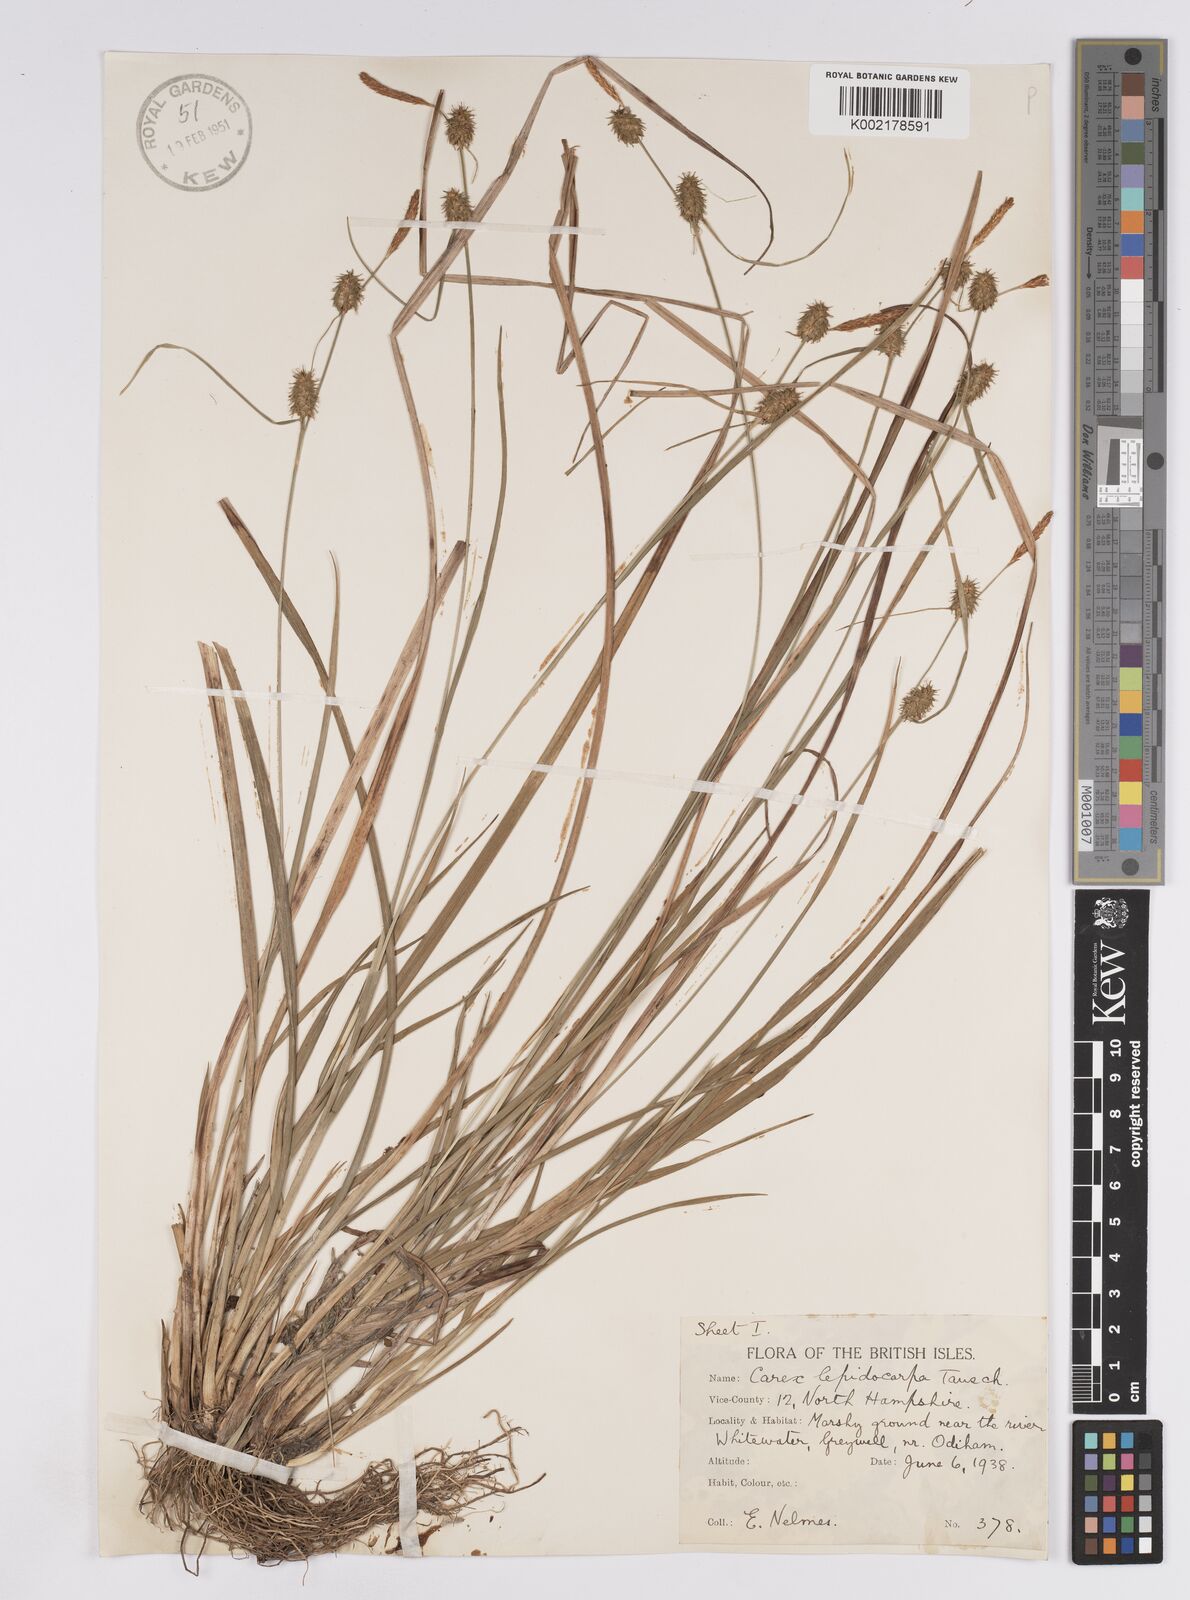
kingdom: Plantae
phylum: Tracheophyta
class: Liliopsida
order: Poales
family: Cyperaceae
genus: Carex
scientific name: Carex lepidocarpa
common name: Long-stalked yellow-sedge
